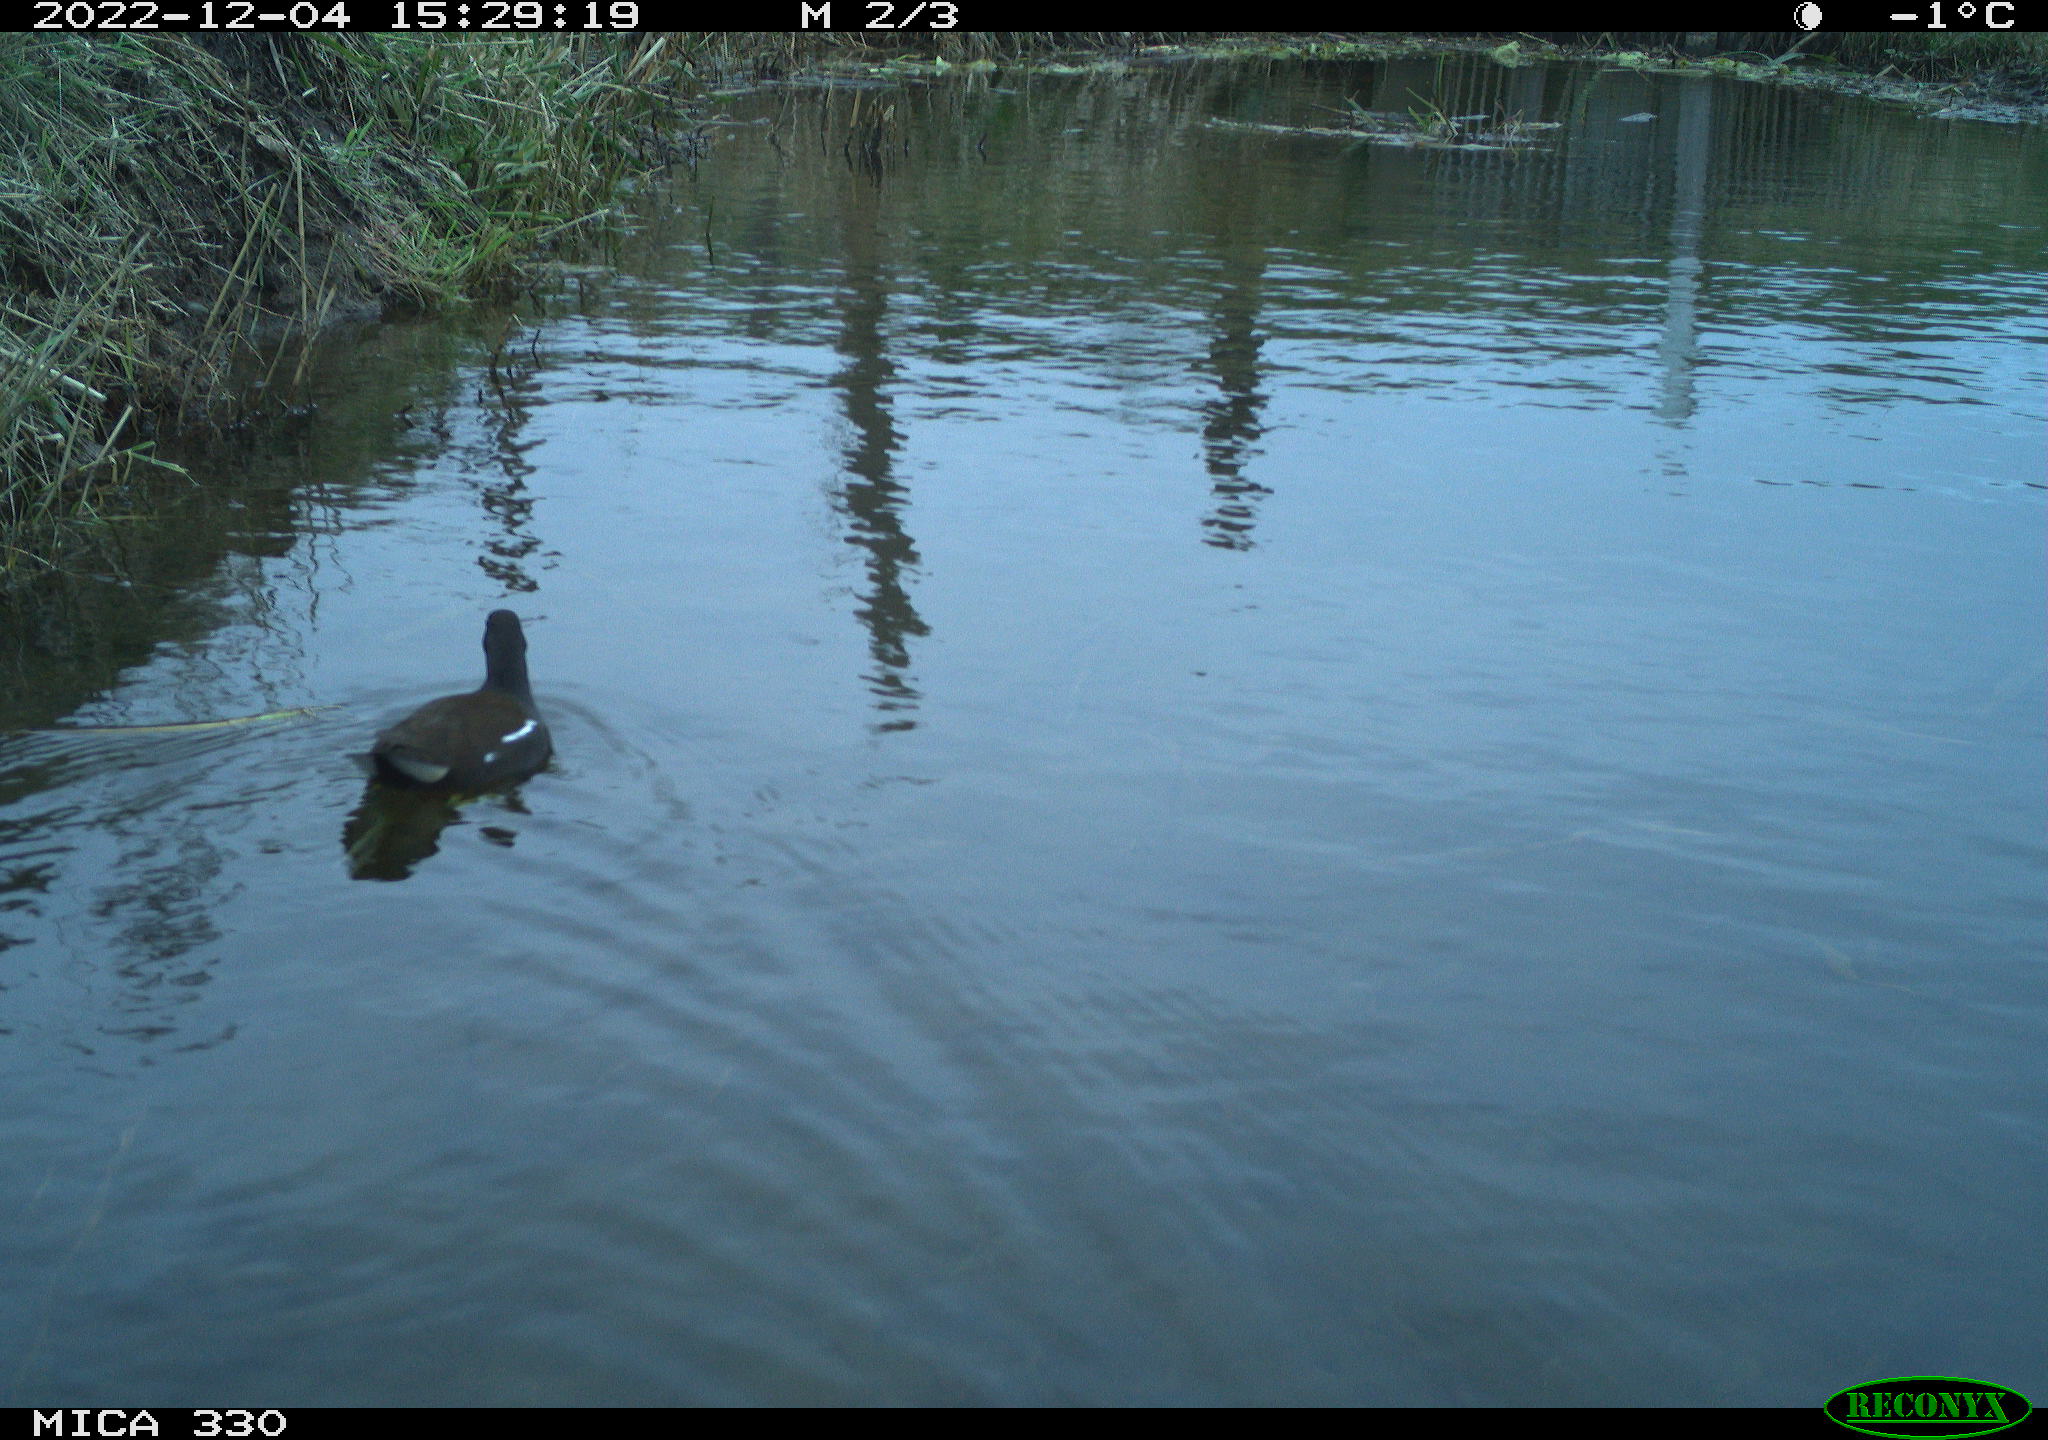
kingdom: Animalia
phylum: Chordata
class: Aves
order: Gruiformes
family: Rallidae
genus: Gallinula
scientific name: Gallinula chloropus
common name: Common moorhen
